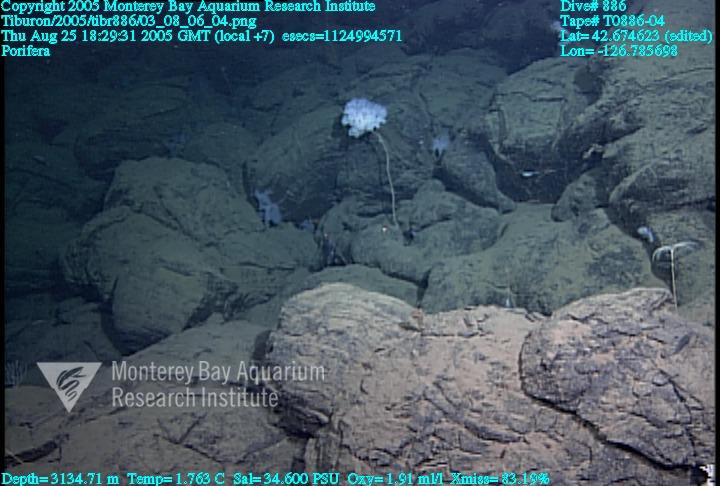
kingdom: Animalia
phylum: Porifera
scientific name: Porifera
